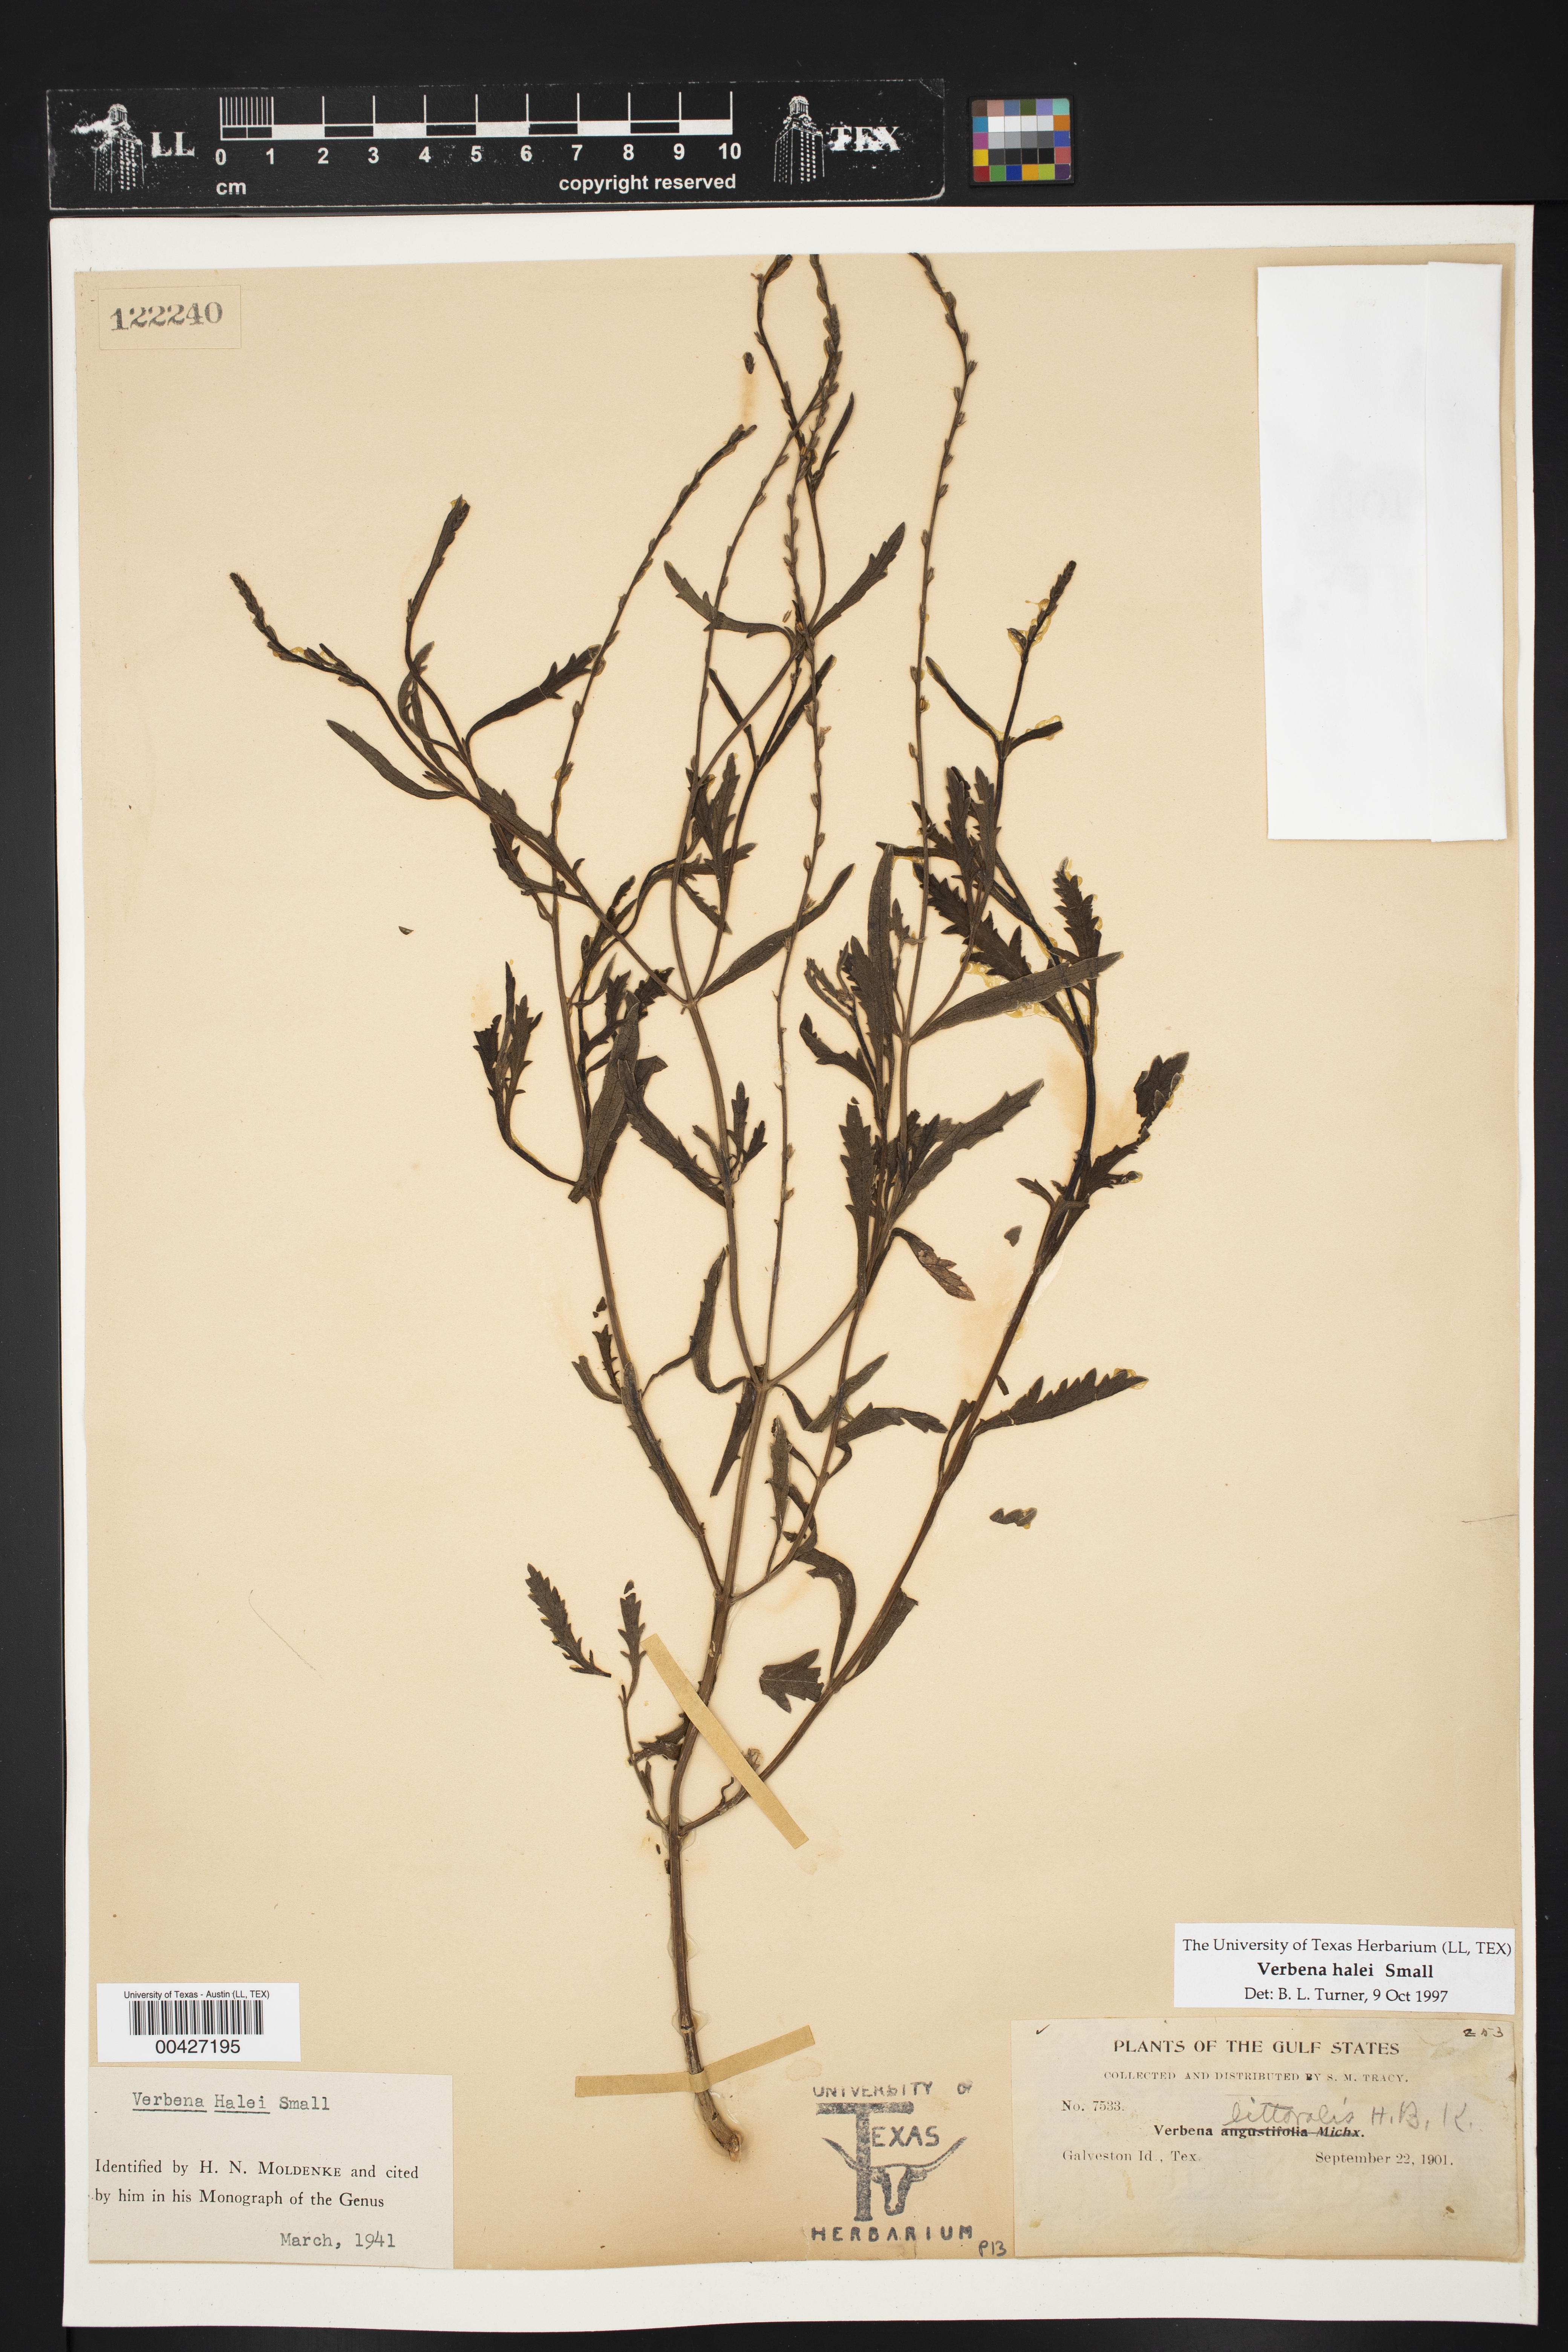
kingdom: Plantae
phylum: Tracheophyta
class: Magnoliopsida
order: Lamiales
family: Verbenaceae
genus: Verbena
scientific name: Verbena halei
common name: Texas vervain
